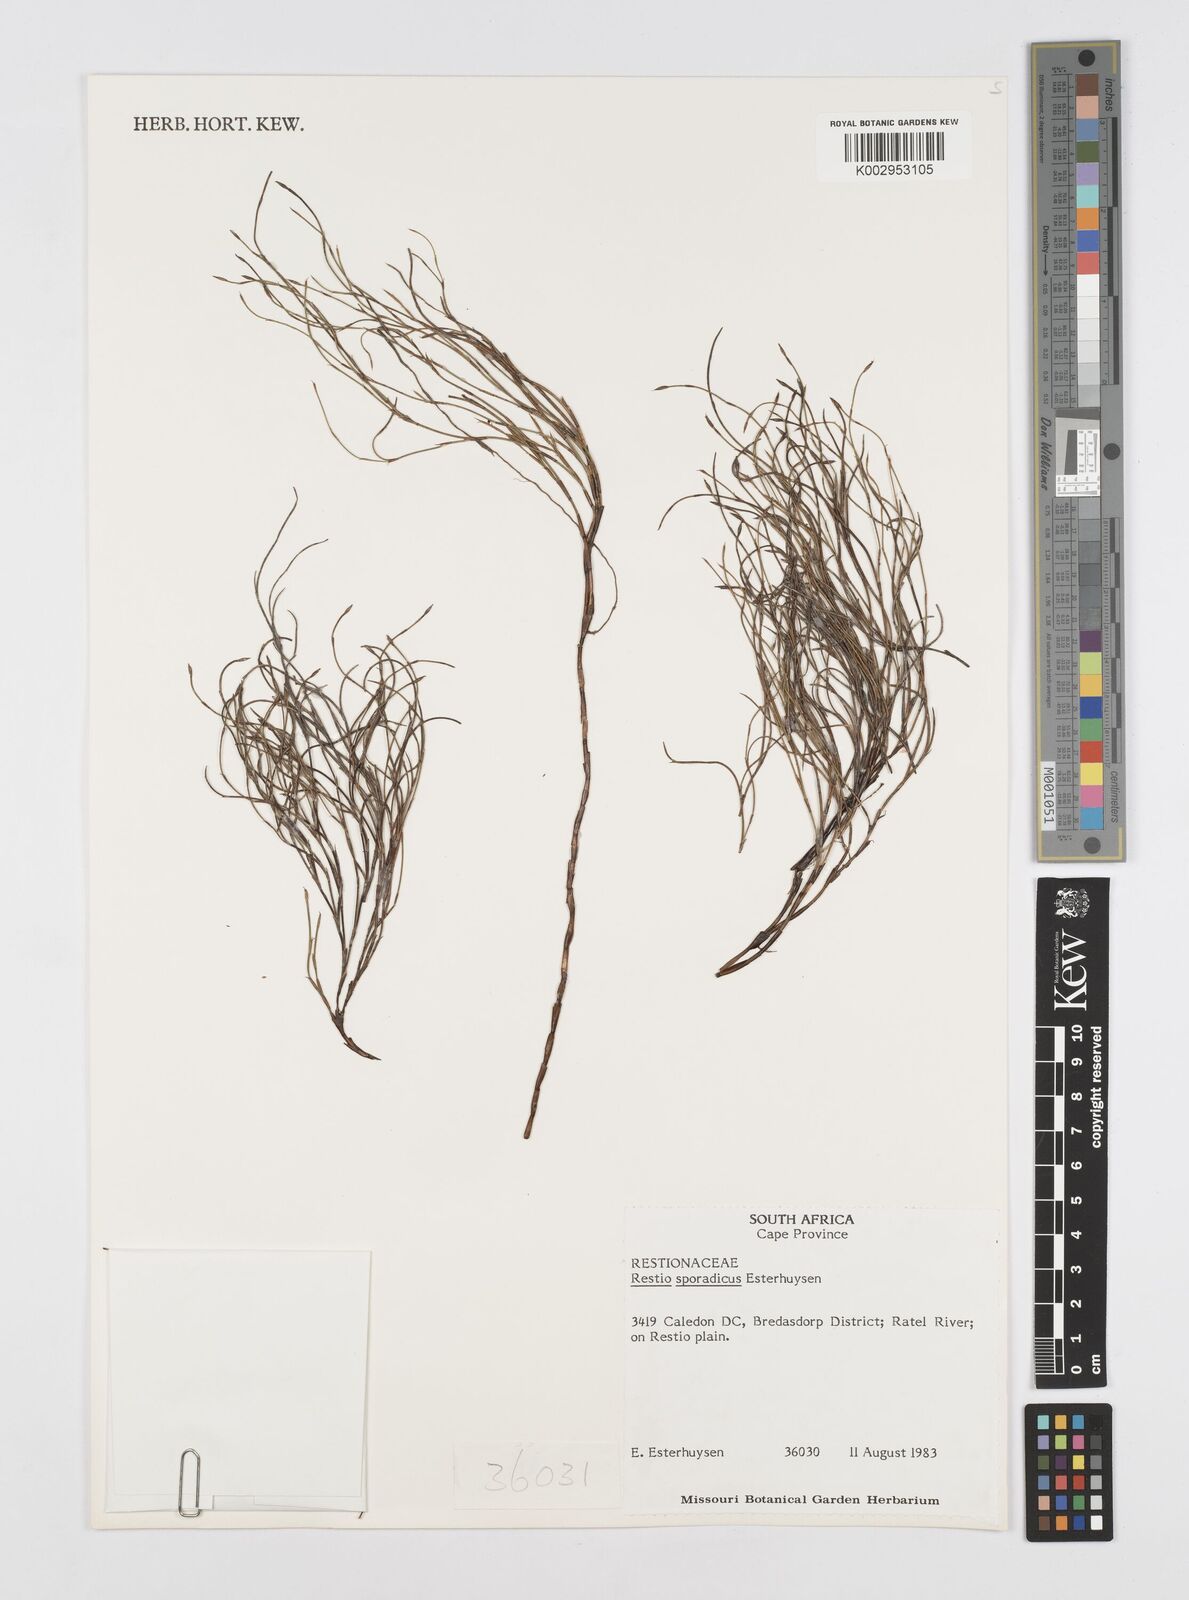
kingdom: Plantae
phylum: Tracheophyta
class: Liliopsida
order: Poales
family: Restionaceae
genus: Restio
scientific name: Restio sporadicus
